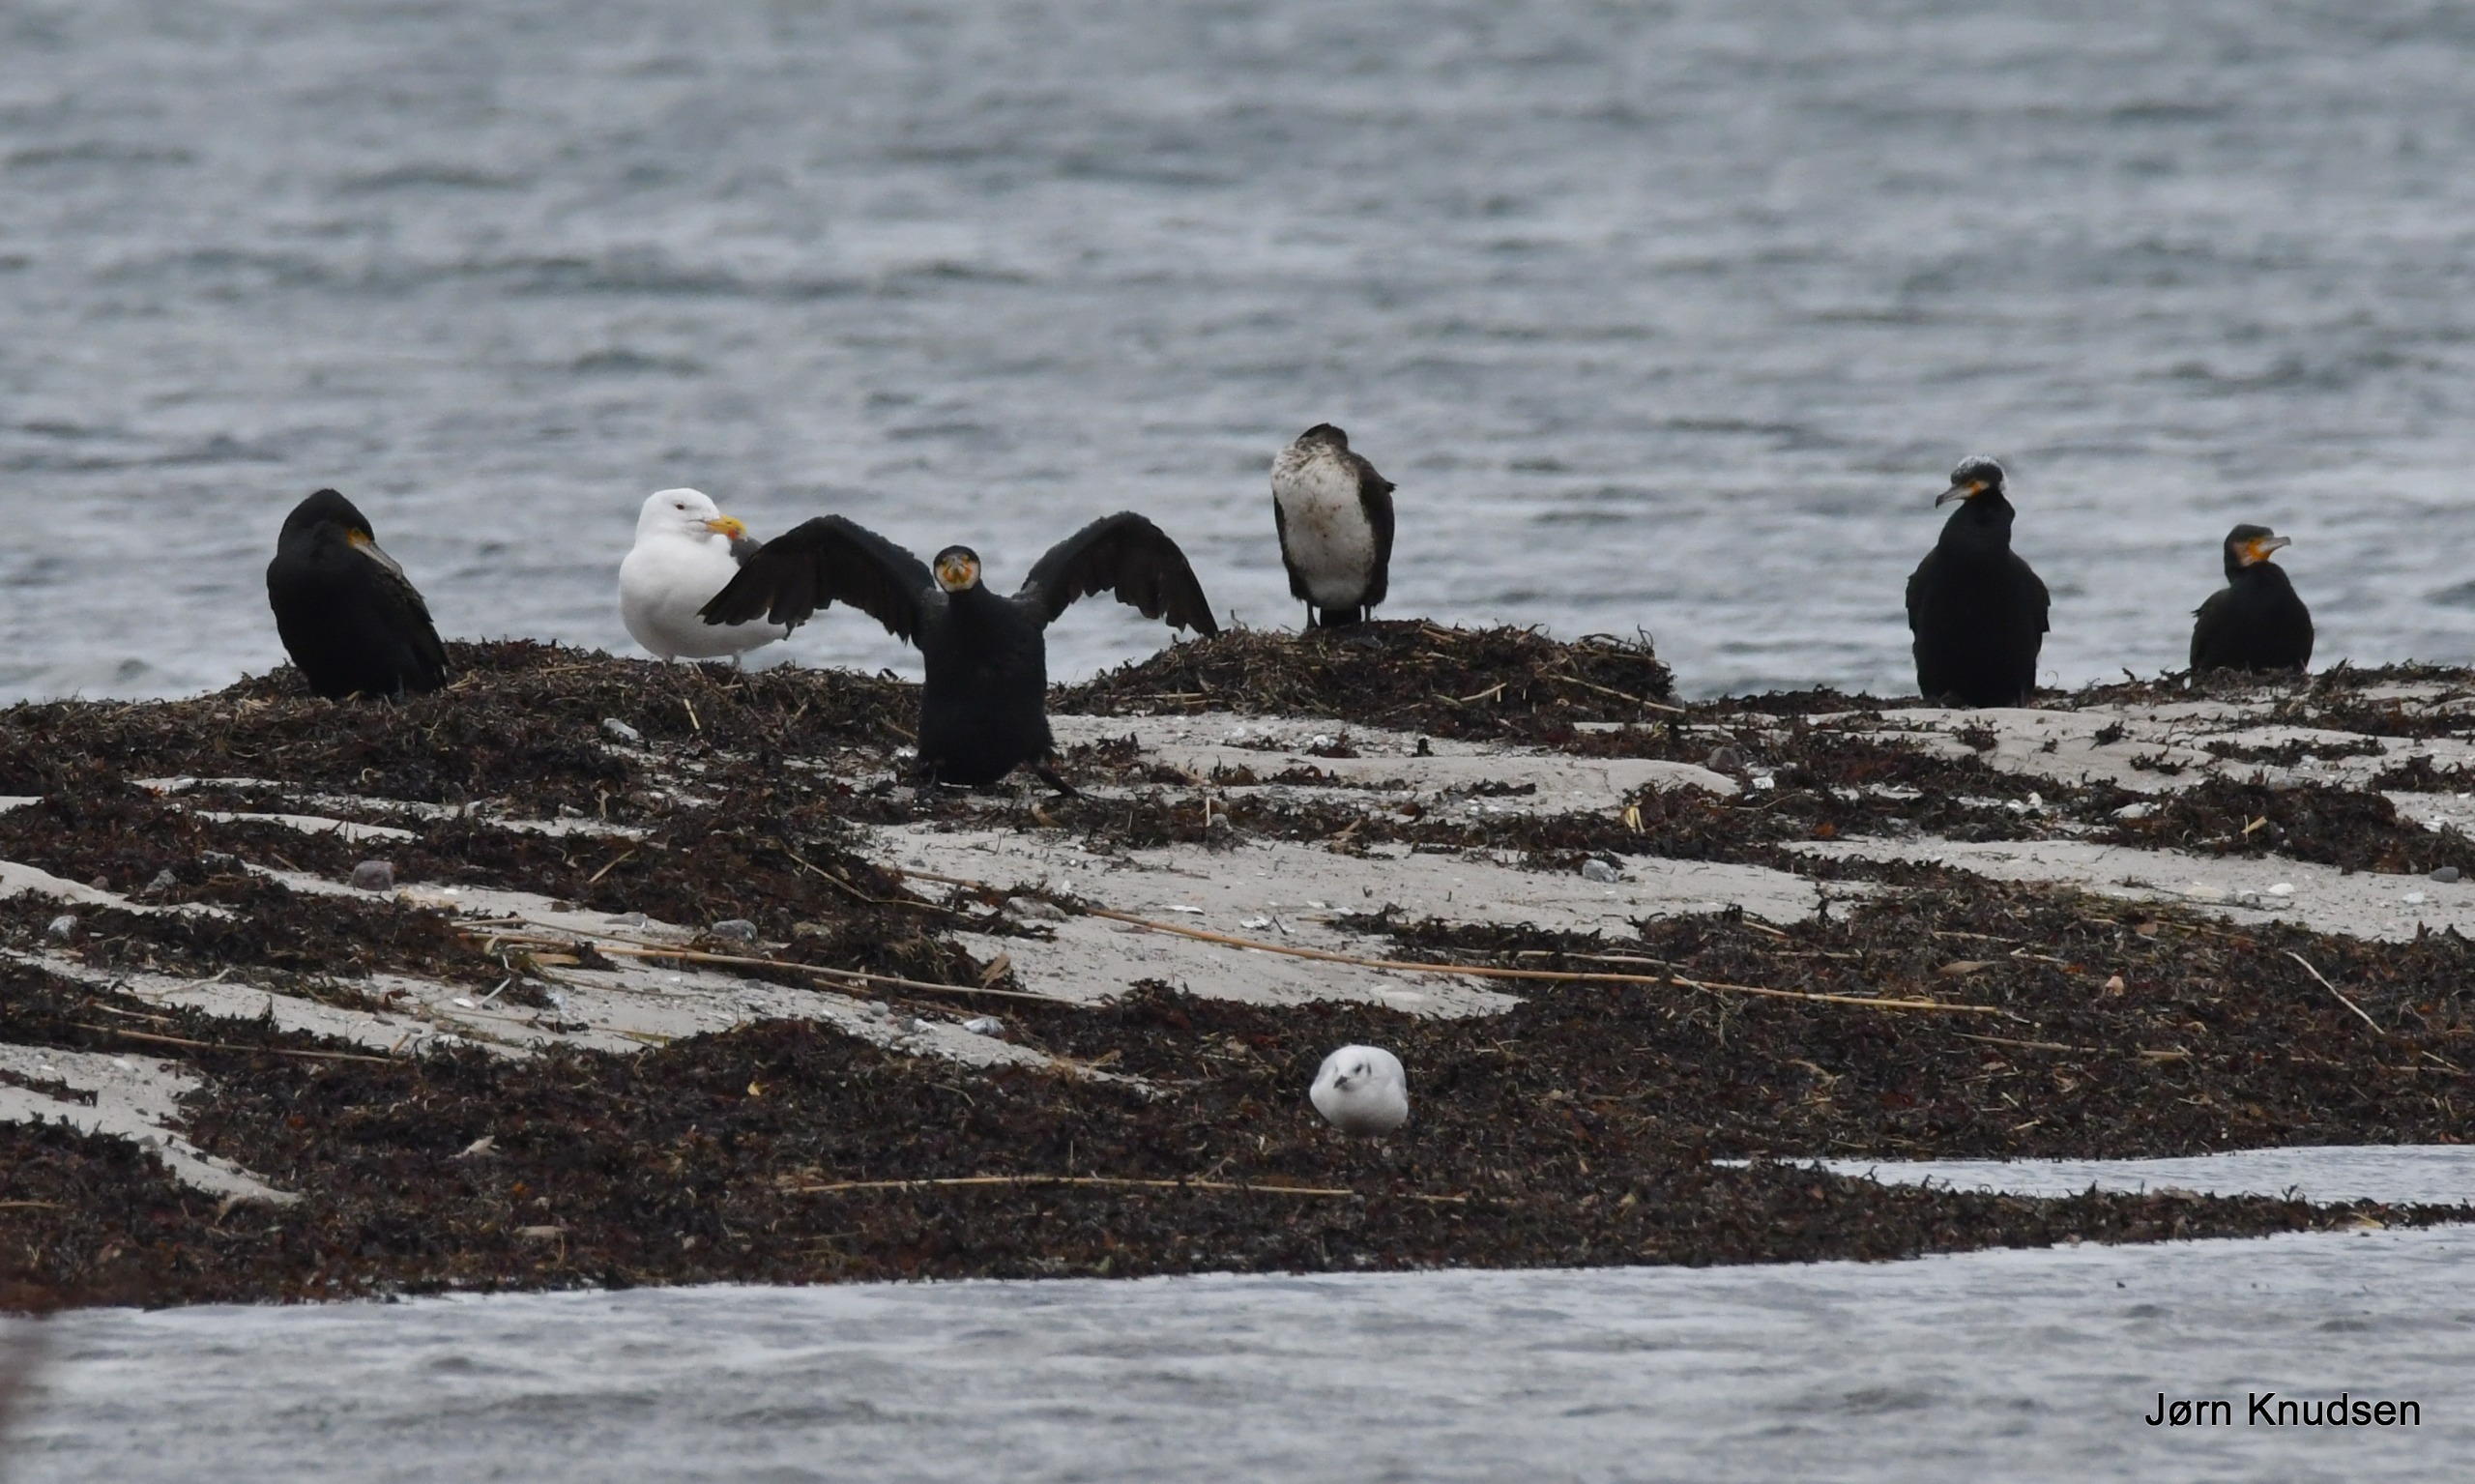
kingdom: Animalia
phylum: Chordata
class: Aves
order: Charadriiformes
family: Laridae
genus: Larus
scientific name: Larus marinus
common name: Svartbag
